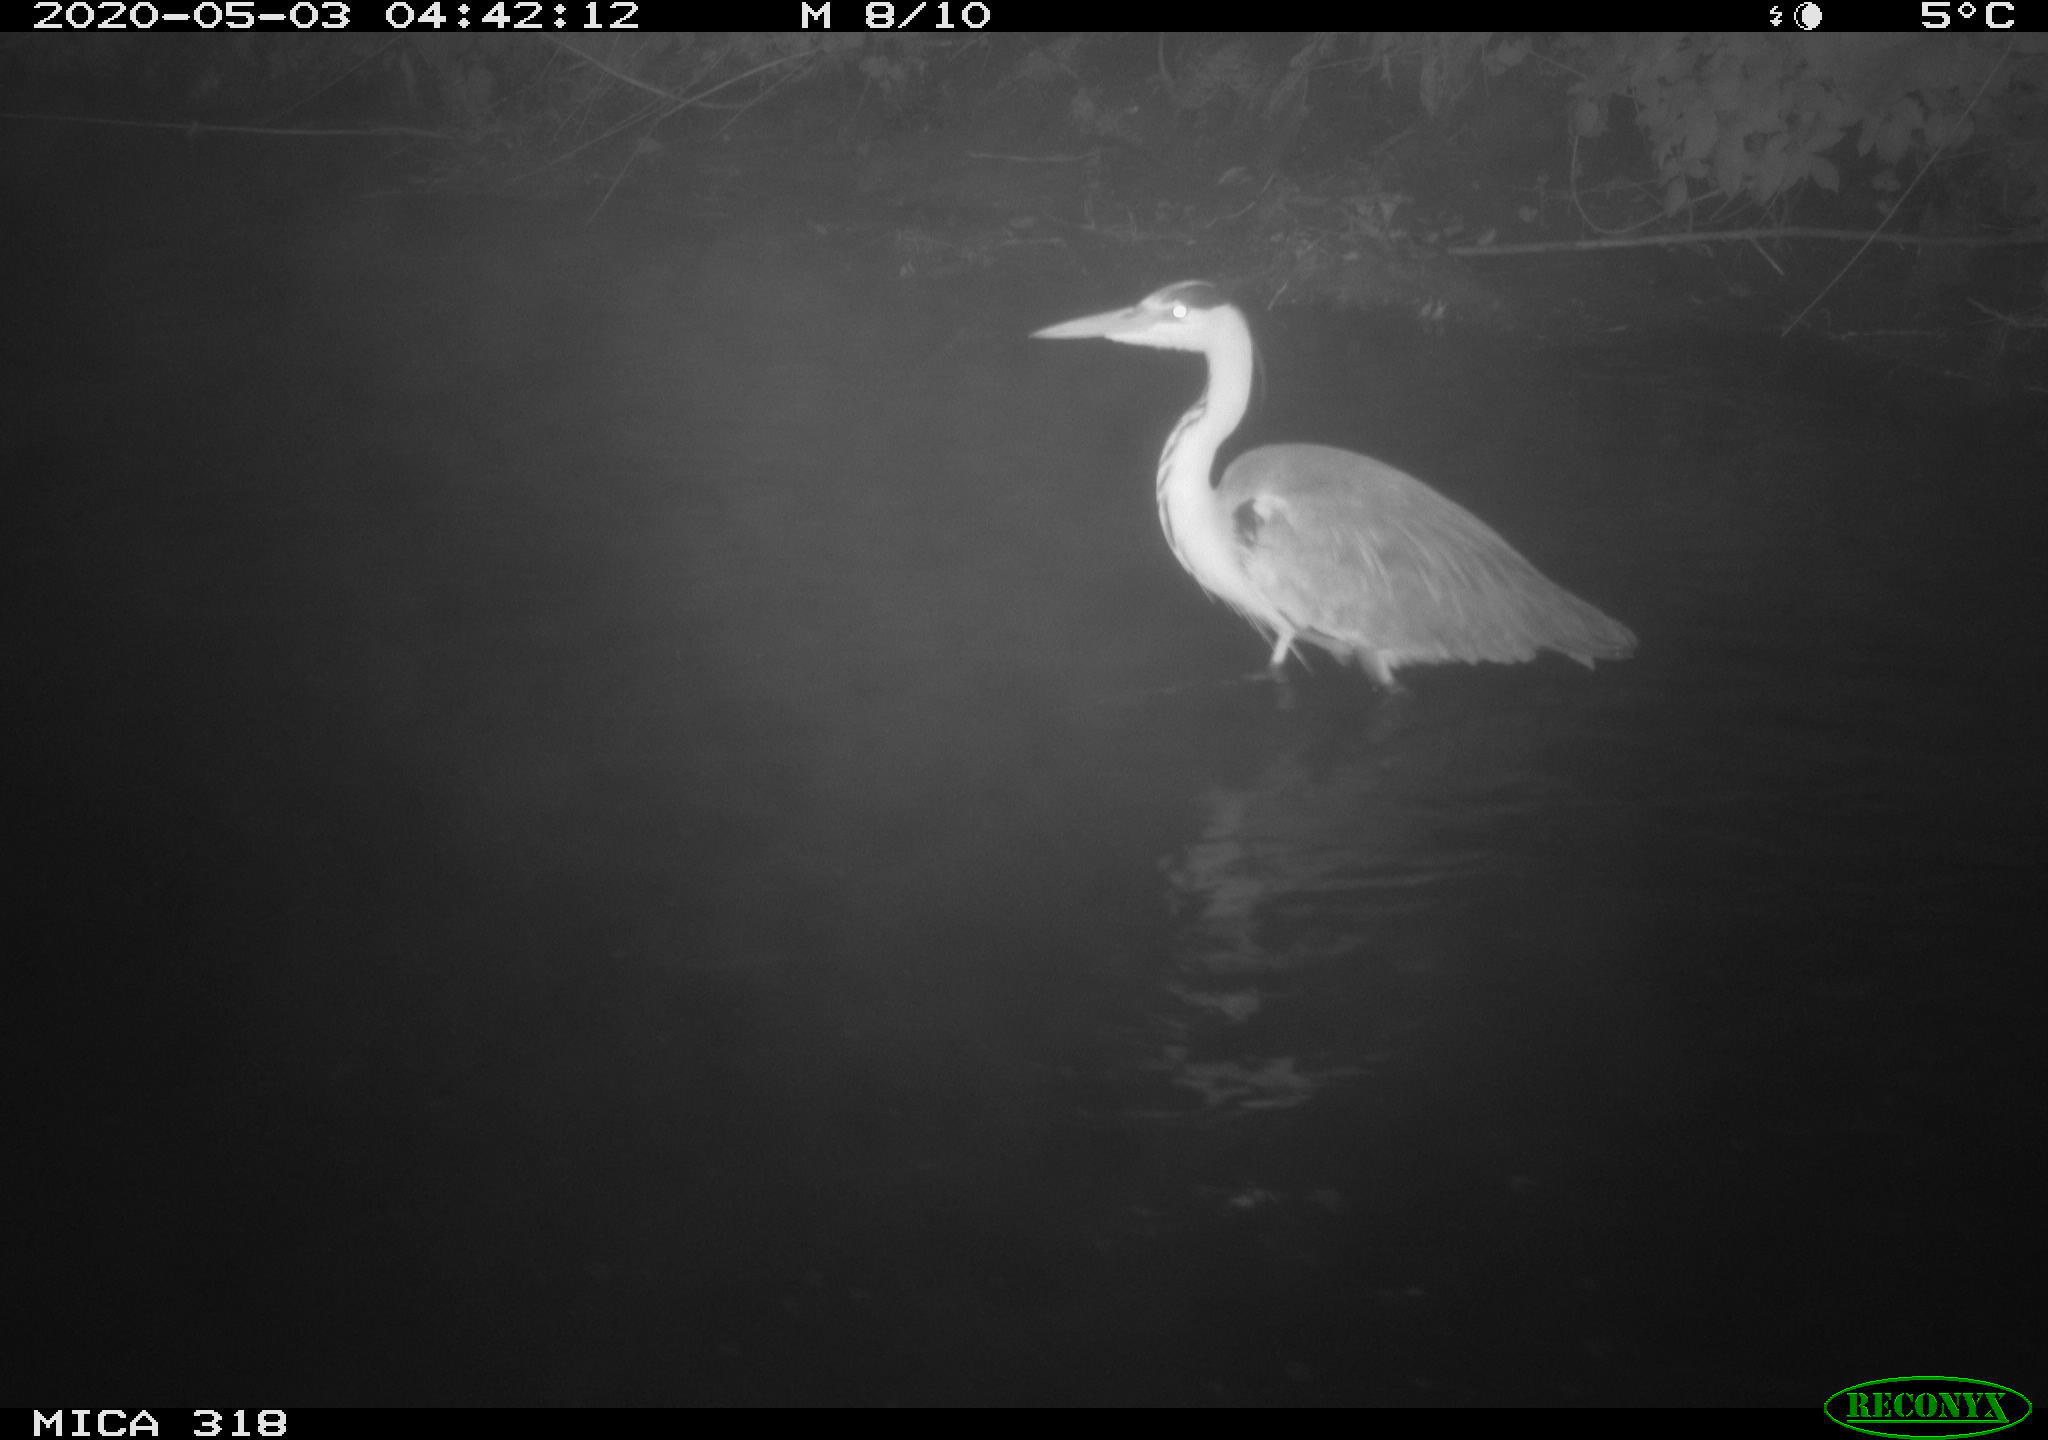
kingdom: Animalia
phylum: Chordata
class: Aves
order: Pelecaniformes
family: Ardeidae
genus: Ardea
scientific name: Ardea cinerea
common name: Grey heron
